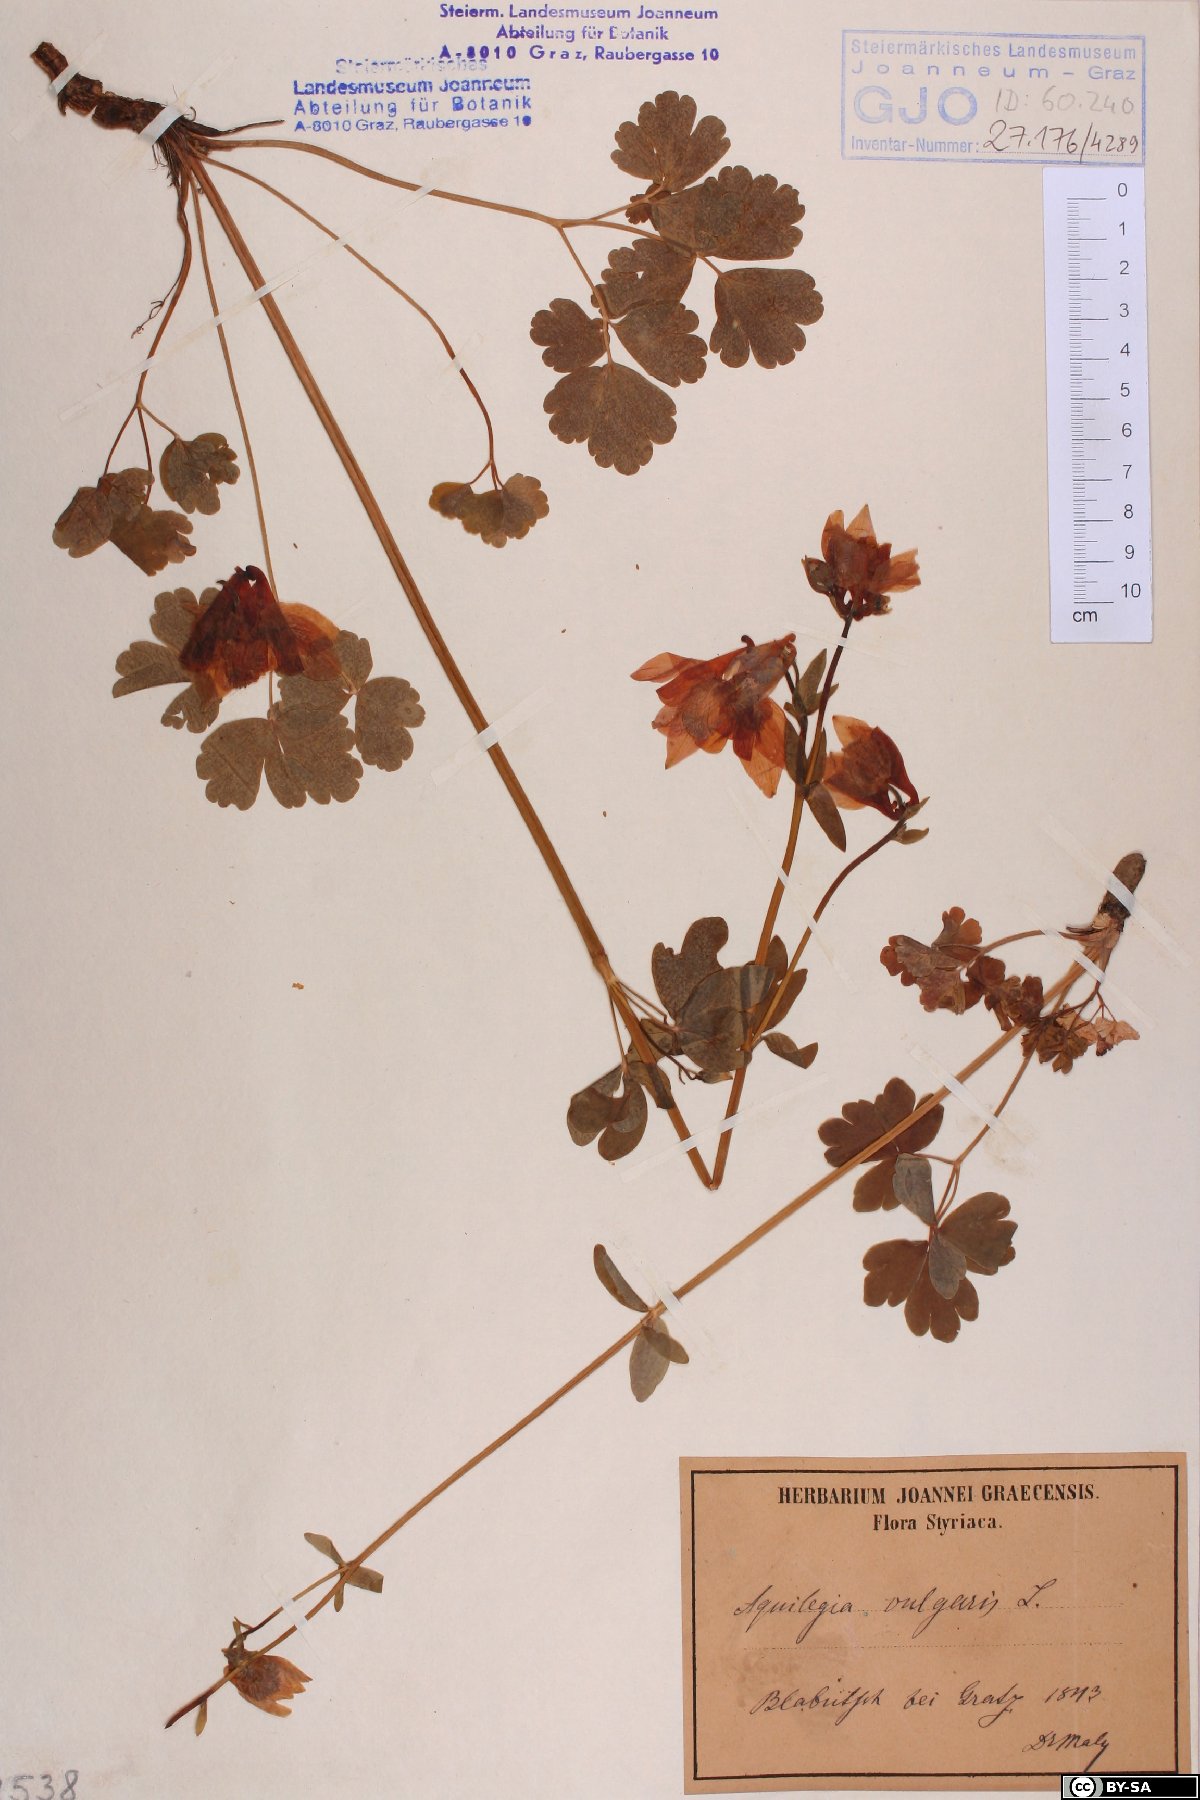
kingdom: Plantae
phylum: Tracheophyta
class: Magnoliopsida
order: Ranunculales
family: Ranunculaceae
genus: Aquilegia
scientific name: Aquilegia vulgaris
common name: Columbine
